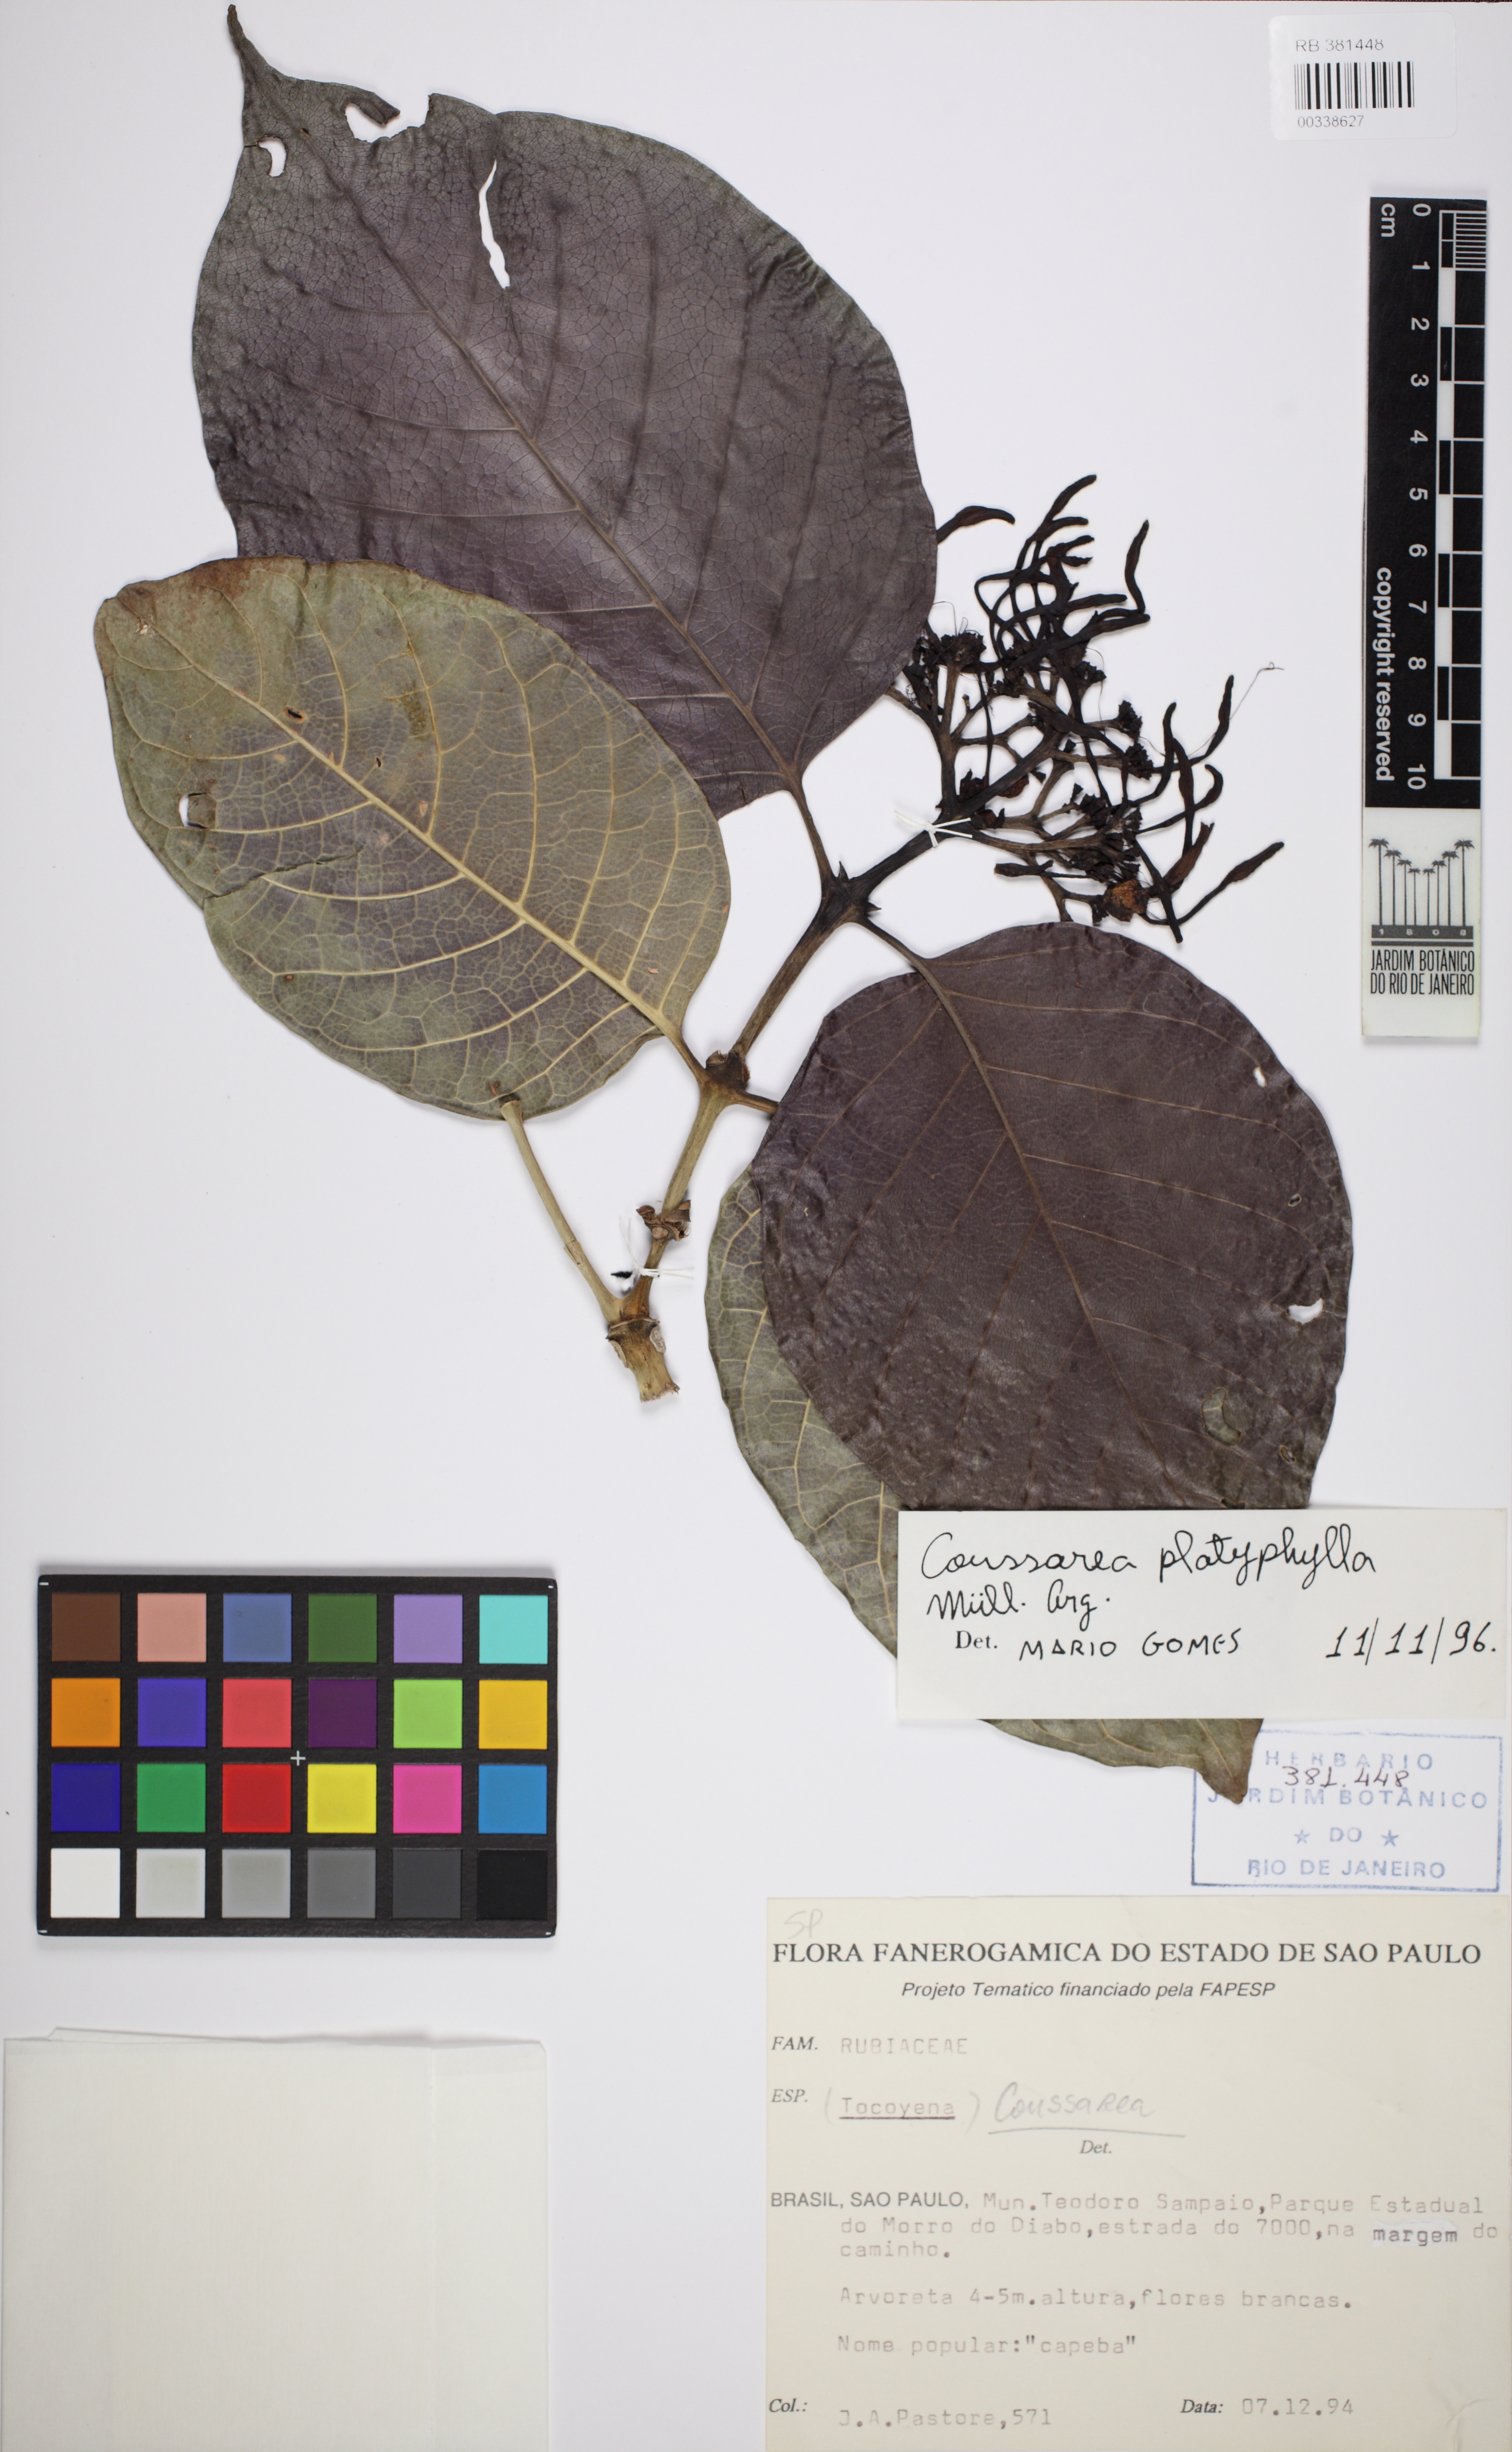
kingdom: Plantae
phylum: Tracheophyta
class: Magnoliopsida
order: Gentianales
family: Rubiaceae
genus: Coussarea
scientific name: Coussarea platyphylla
